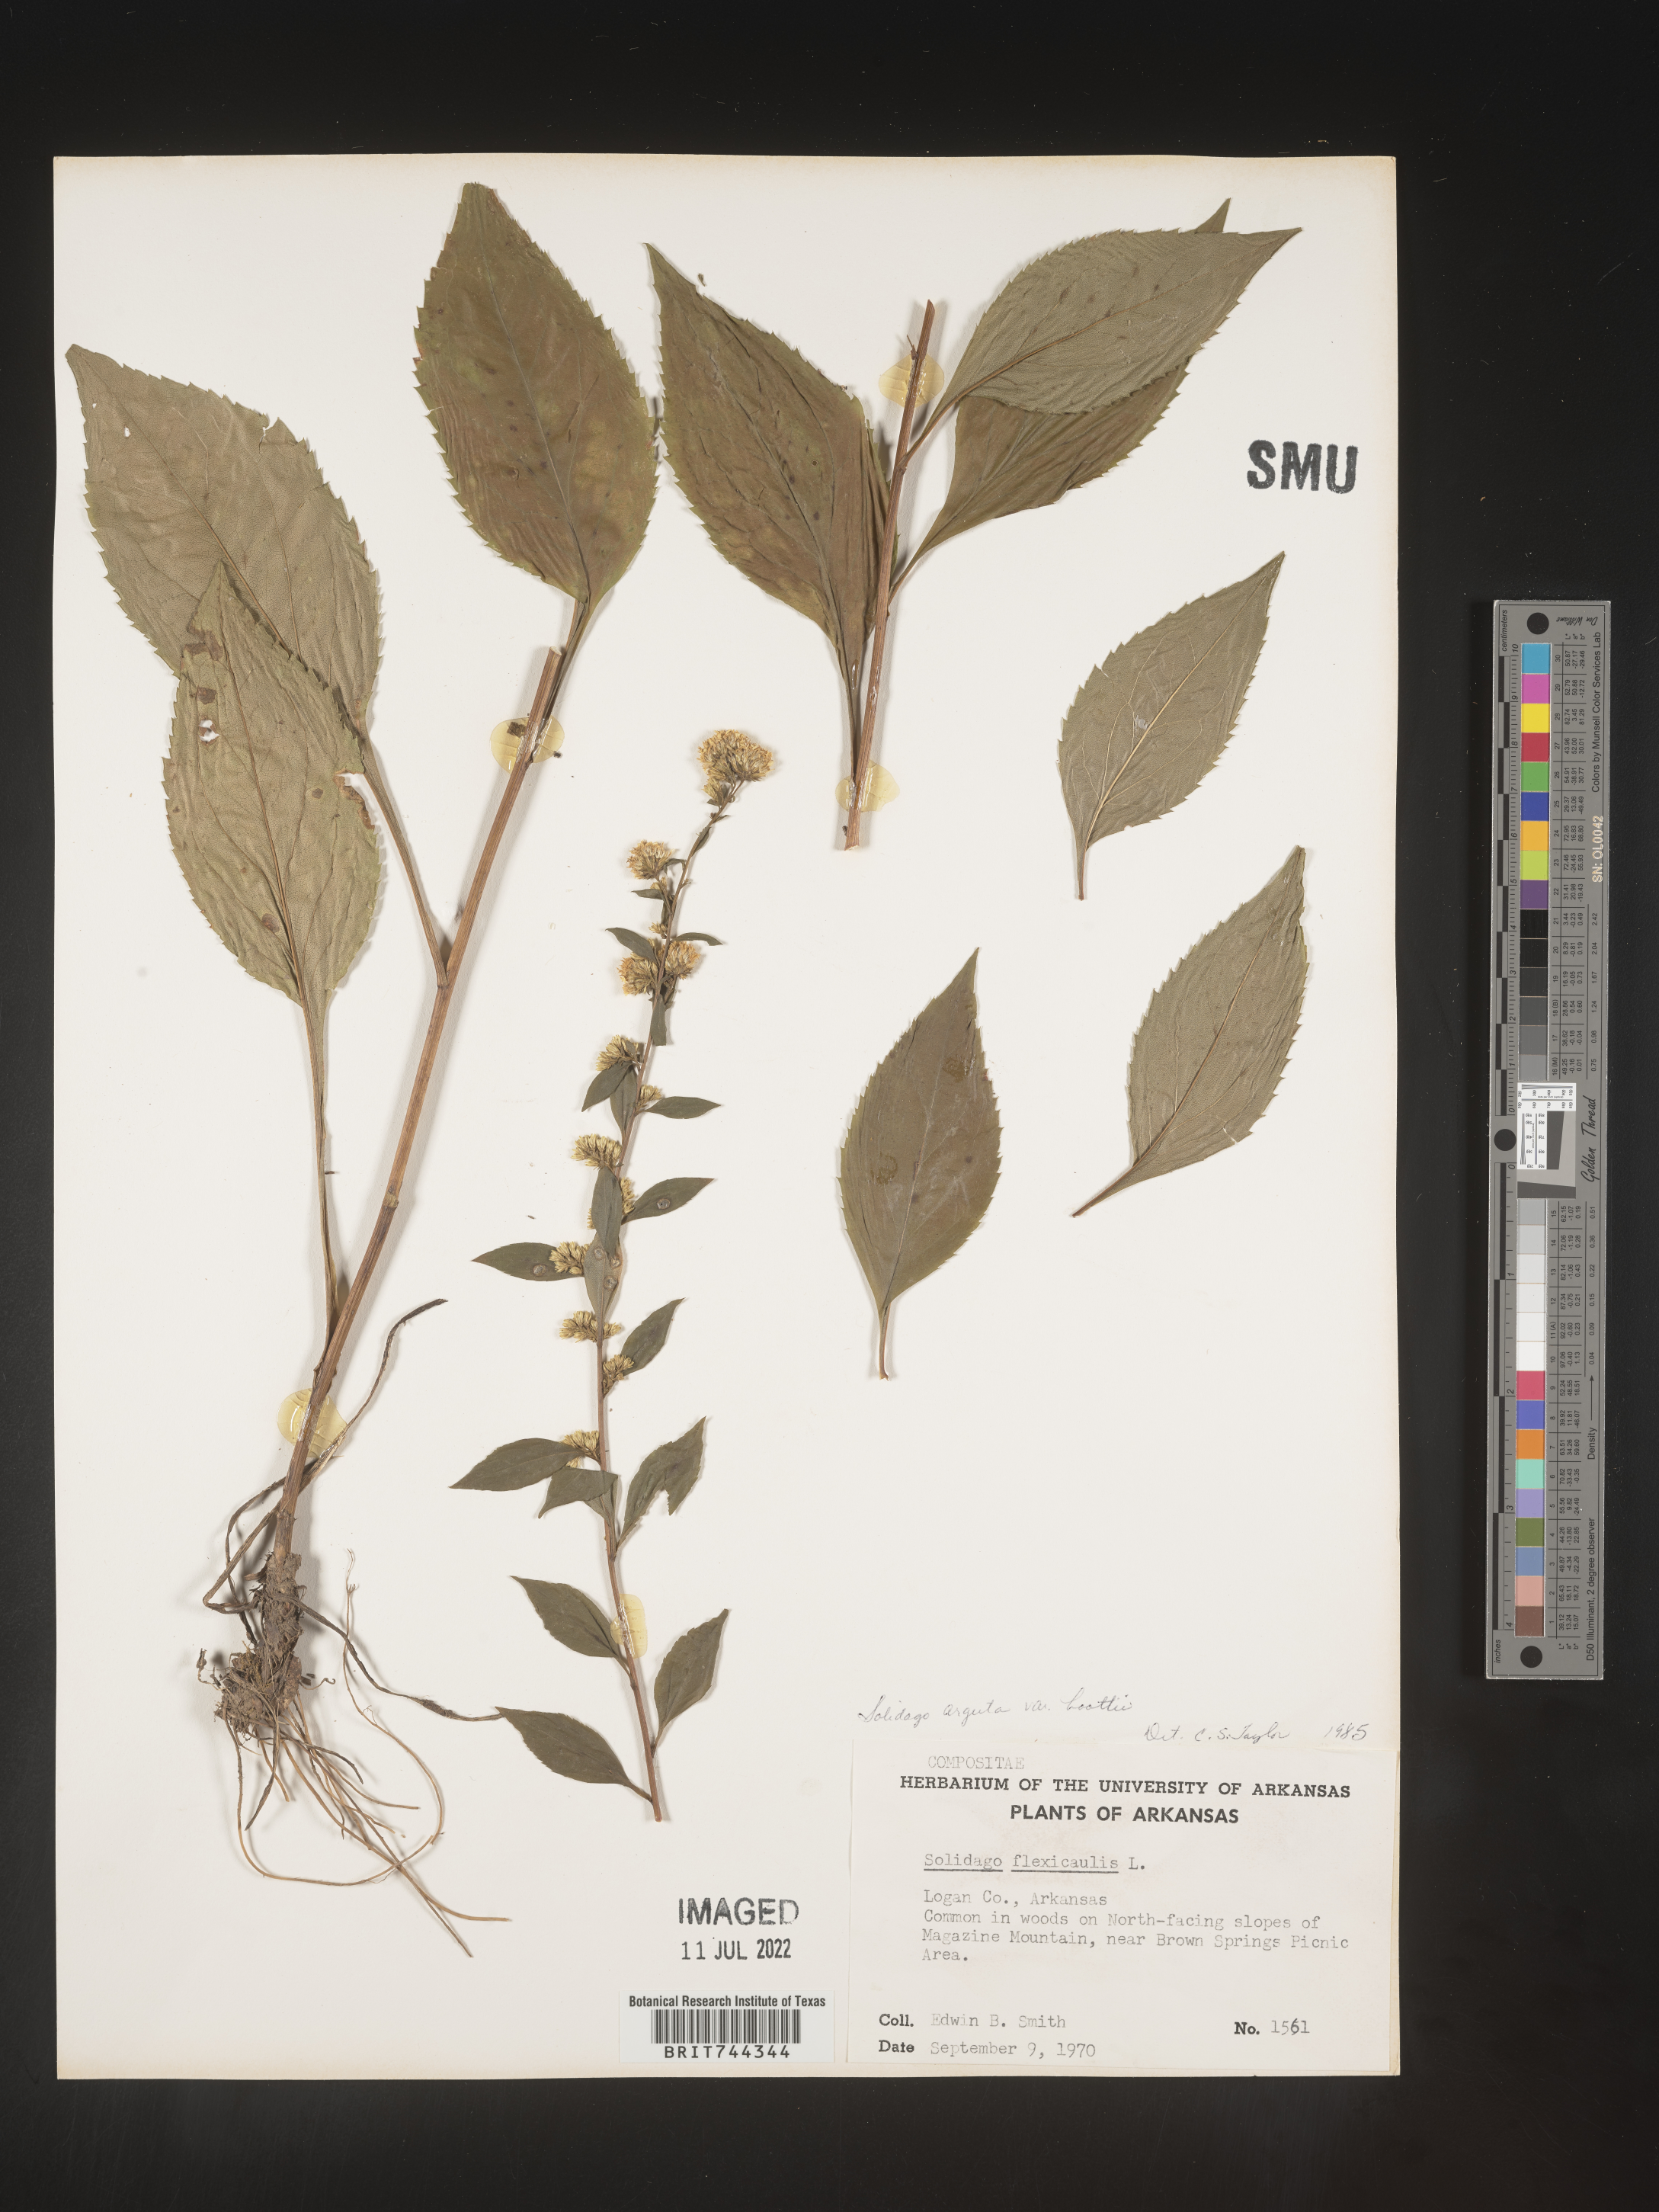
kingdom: Plantae
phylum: Tracheophyta
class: Magnoliopsida
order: Asterales
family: Asteraceae
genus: Solidago
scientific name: Solidago arguta
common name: Atlantic goldenrod
